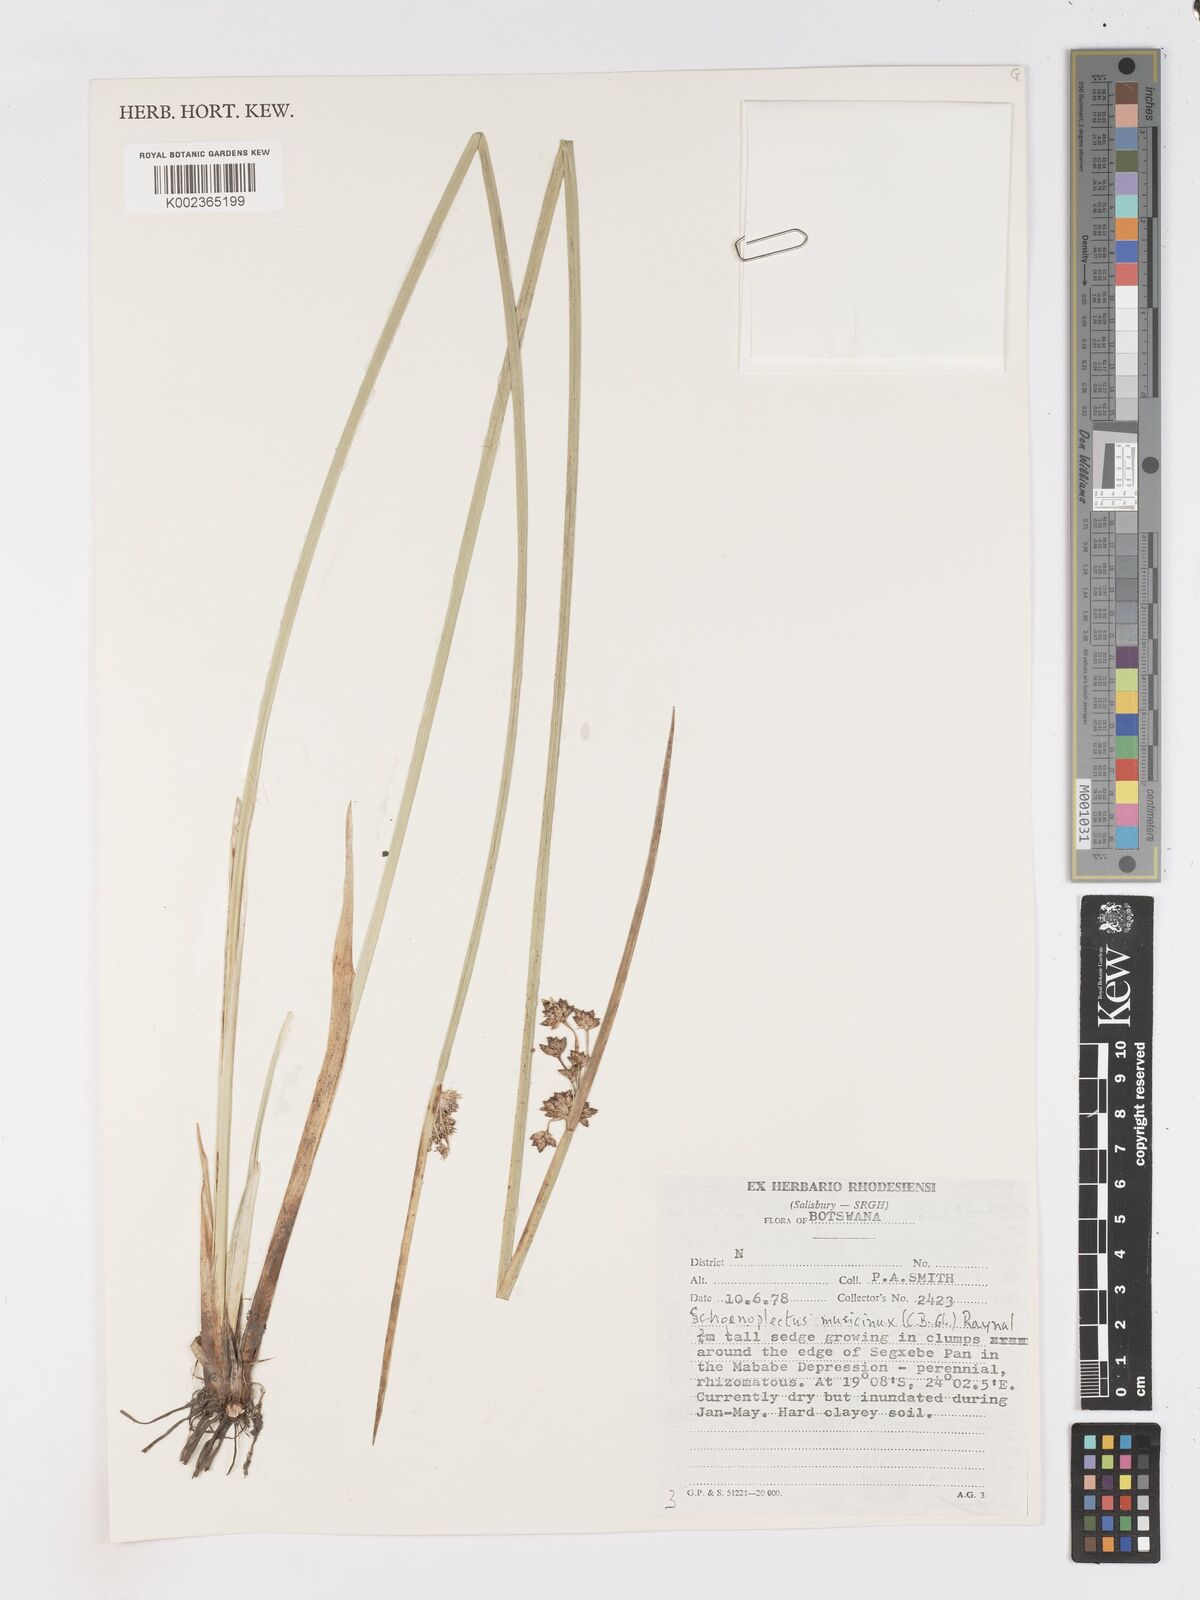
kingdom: Plantae
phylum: Tracheophyta
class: Liliopsida
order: Poales
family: Cyperaceae
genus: Schoenoplectiella
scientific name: Schoenoplectiella muricinux
